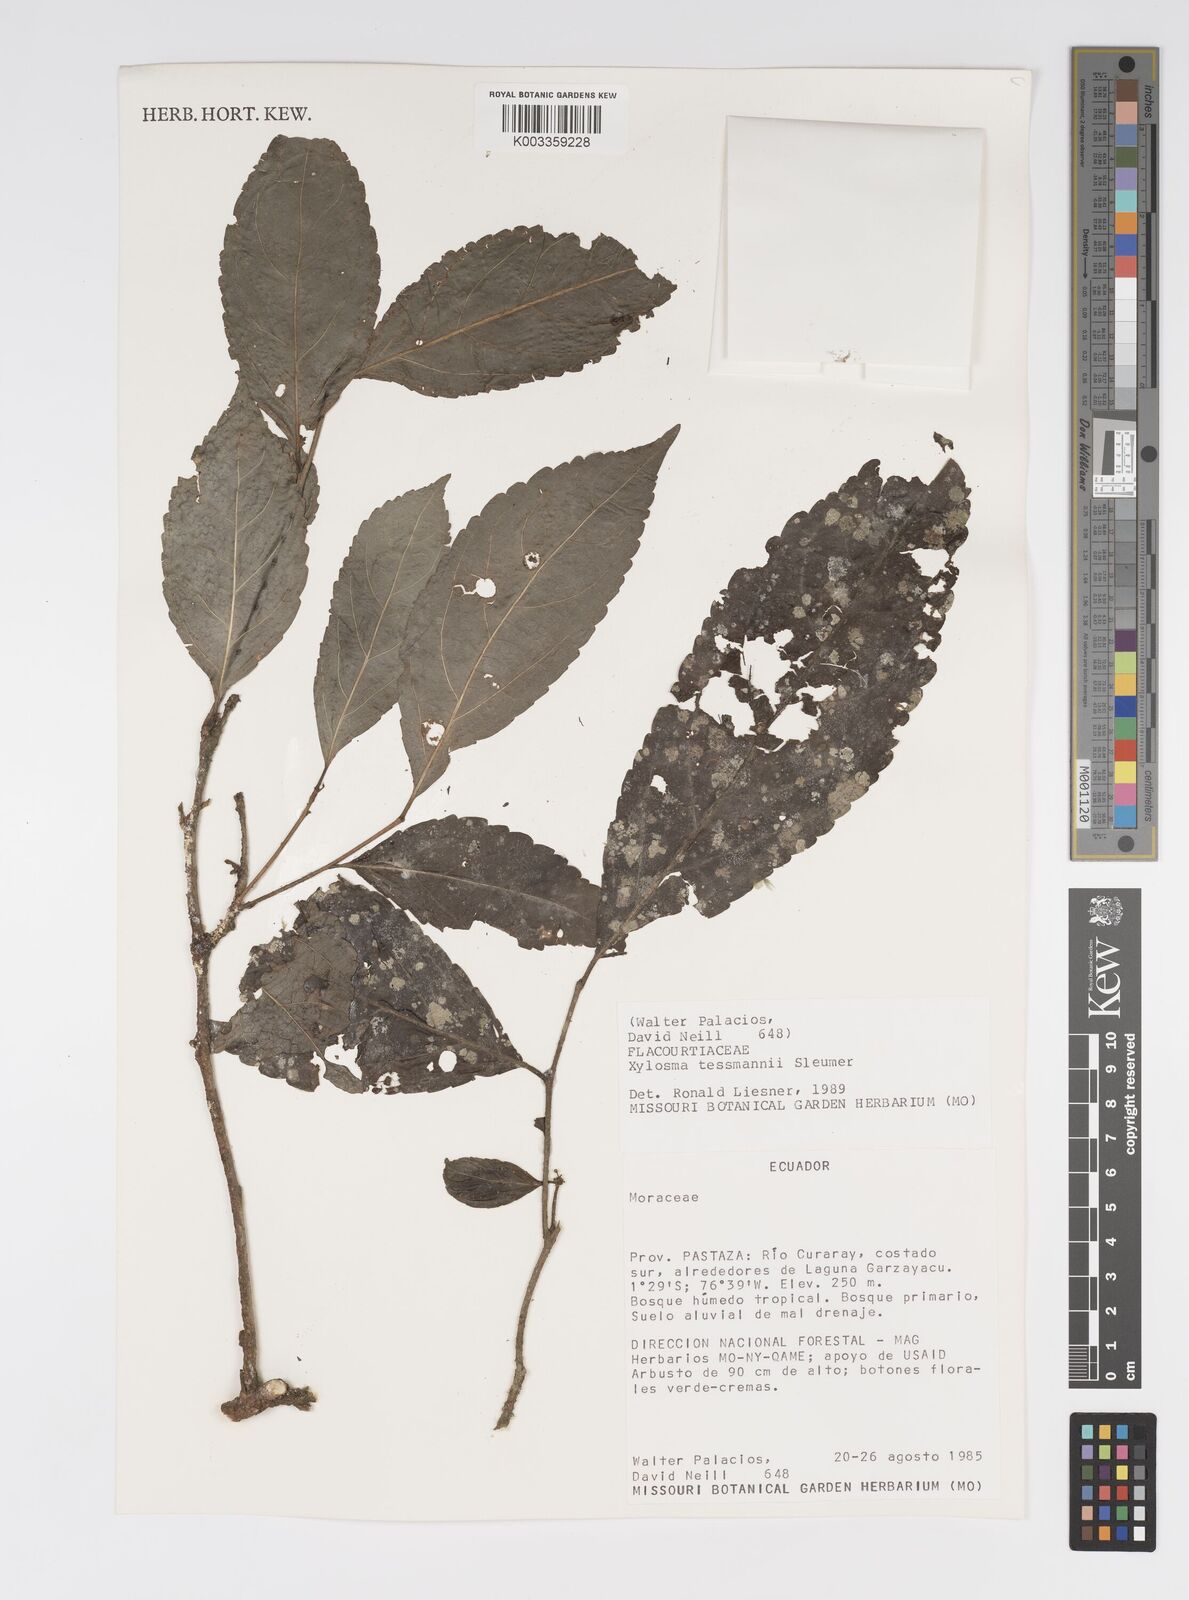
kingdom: Plantae
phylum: Tracheophyta
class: Magnoliopsida
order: Malpighiales
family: Salicaceae
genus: Xylosma
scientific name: Xylosma tessmannii
